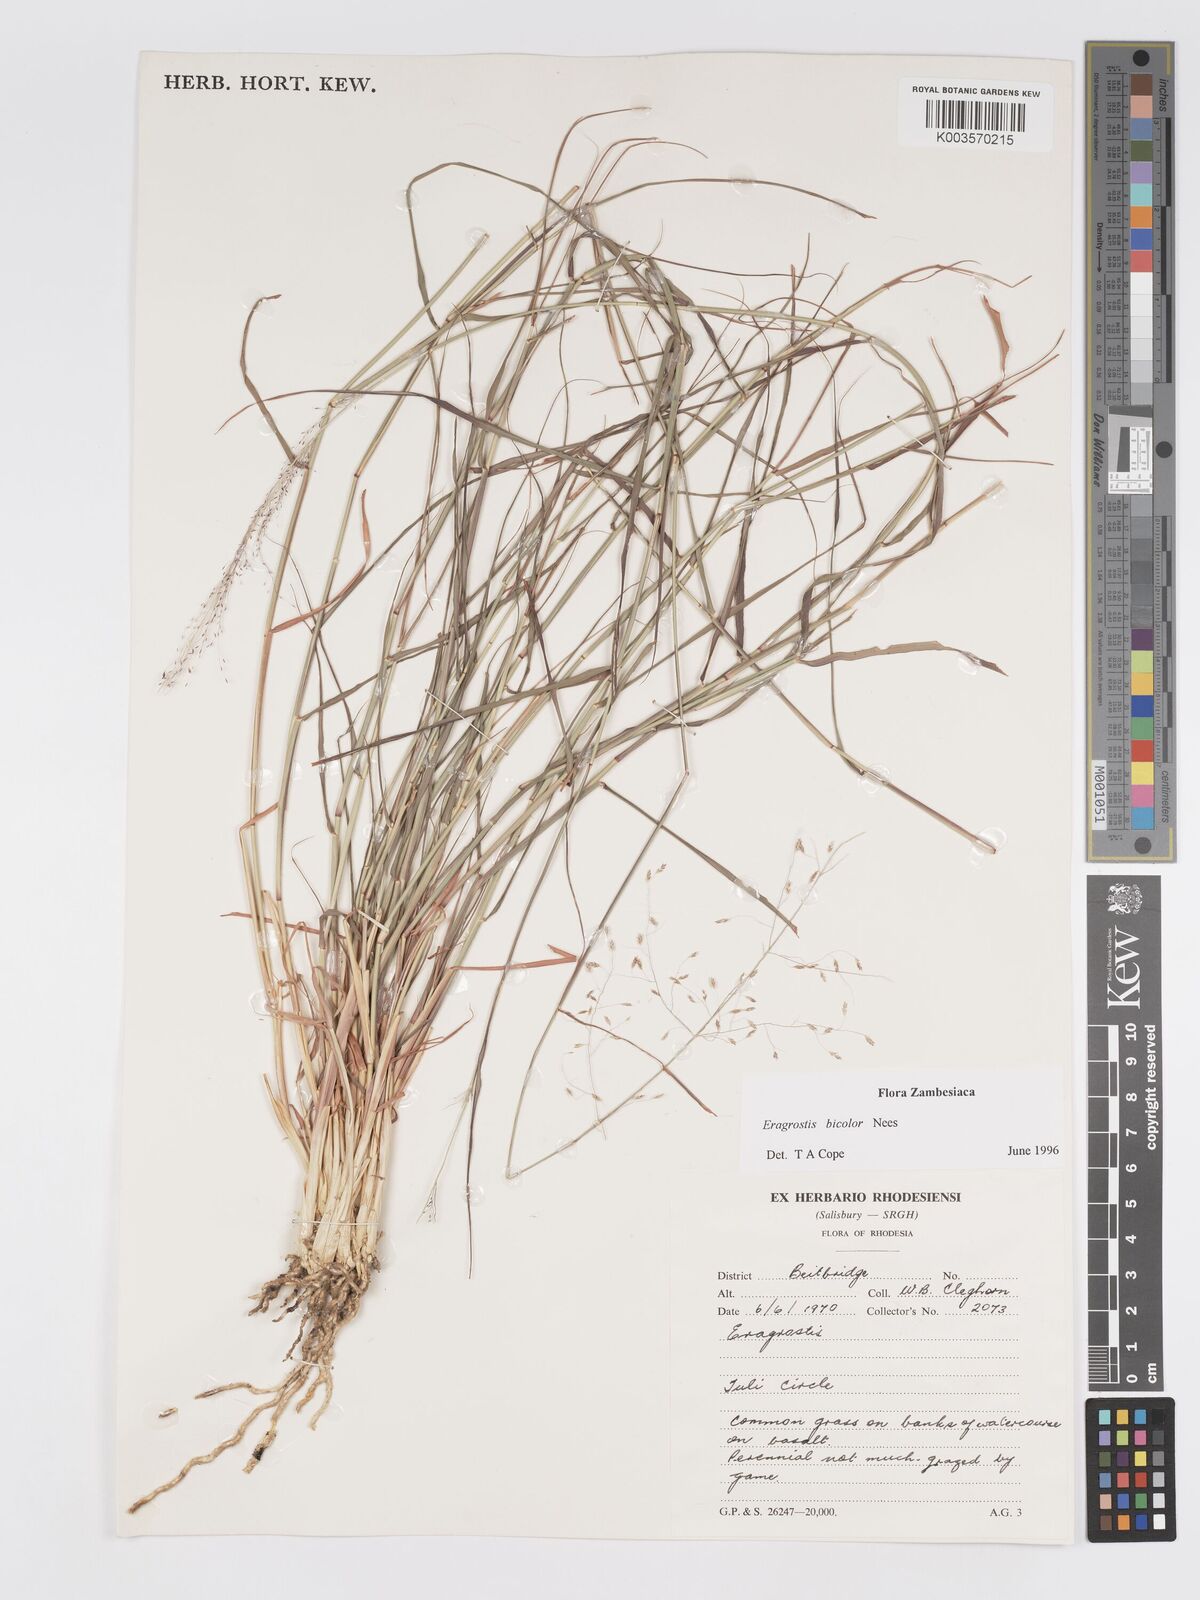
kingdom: Plantae
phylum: Tracheophyta
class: Liliopsida
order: Poales
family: Poaceae
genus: Eragrostis
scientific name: Eragrostis bicolor
